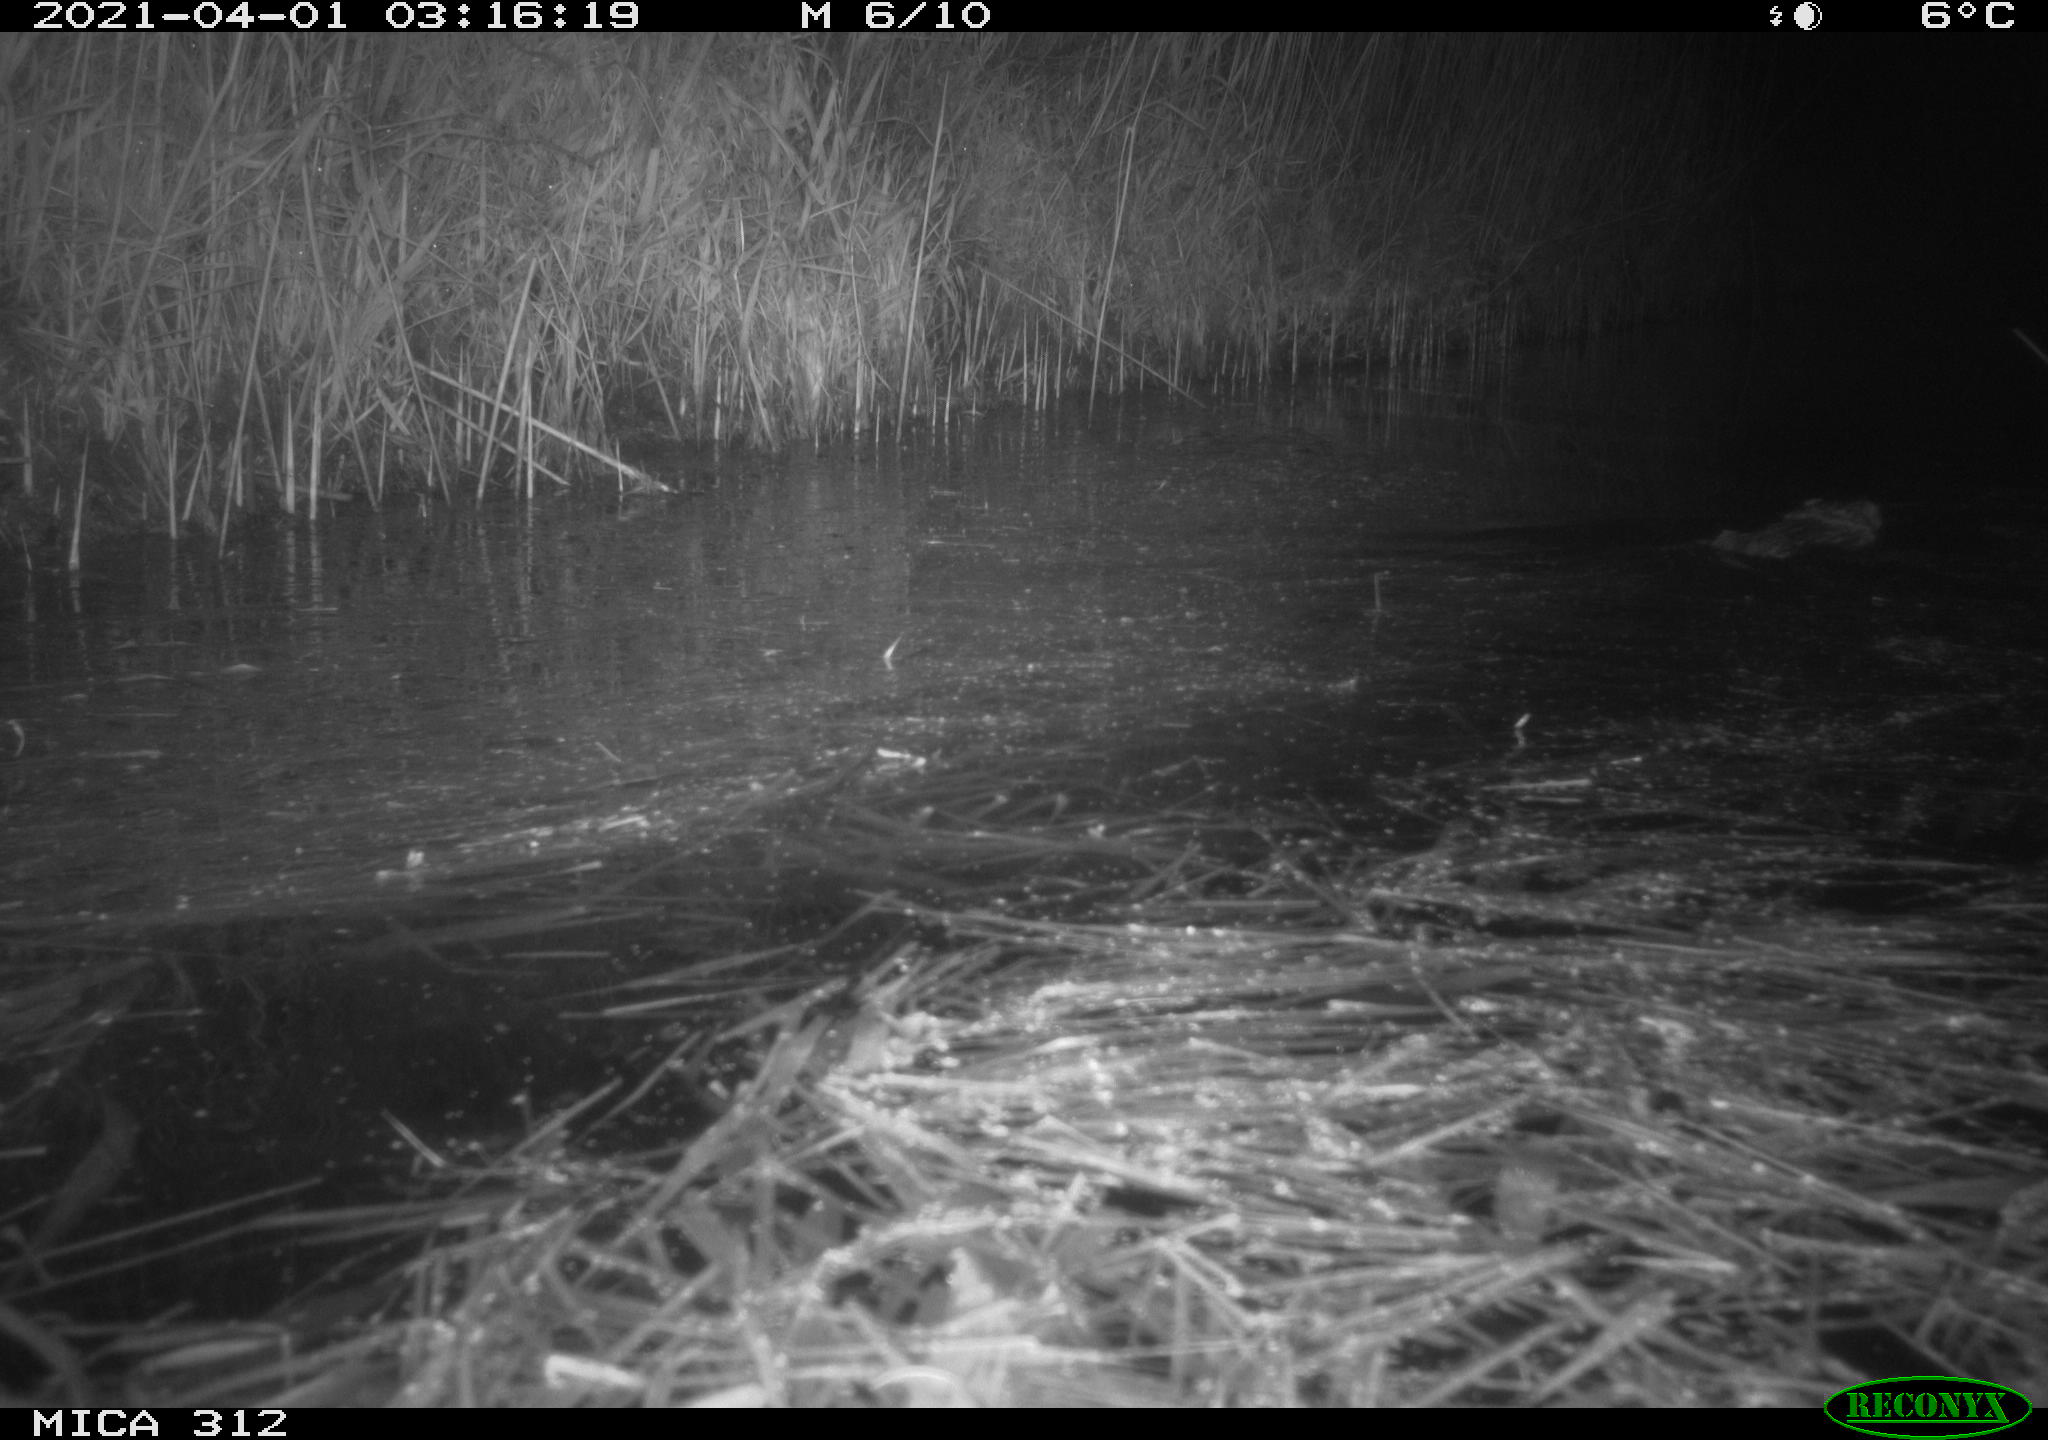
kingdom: Animalia
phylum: Chordata
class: Mammalia
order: Rodentia
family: Cricetidae
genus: Ondatra
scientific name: Ondatra zibethicus
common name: Muskrat
